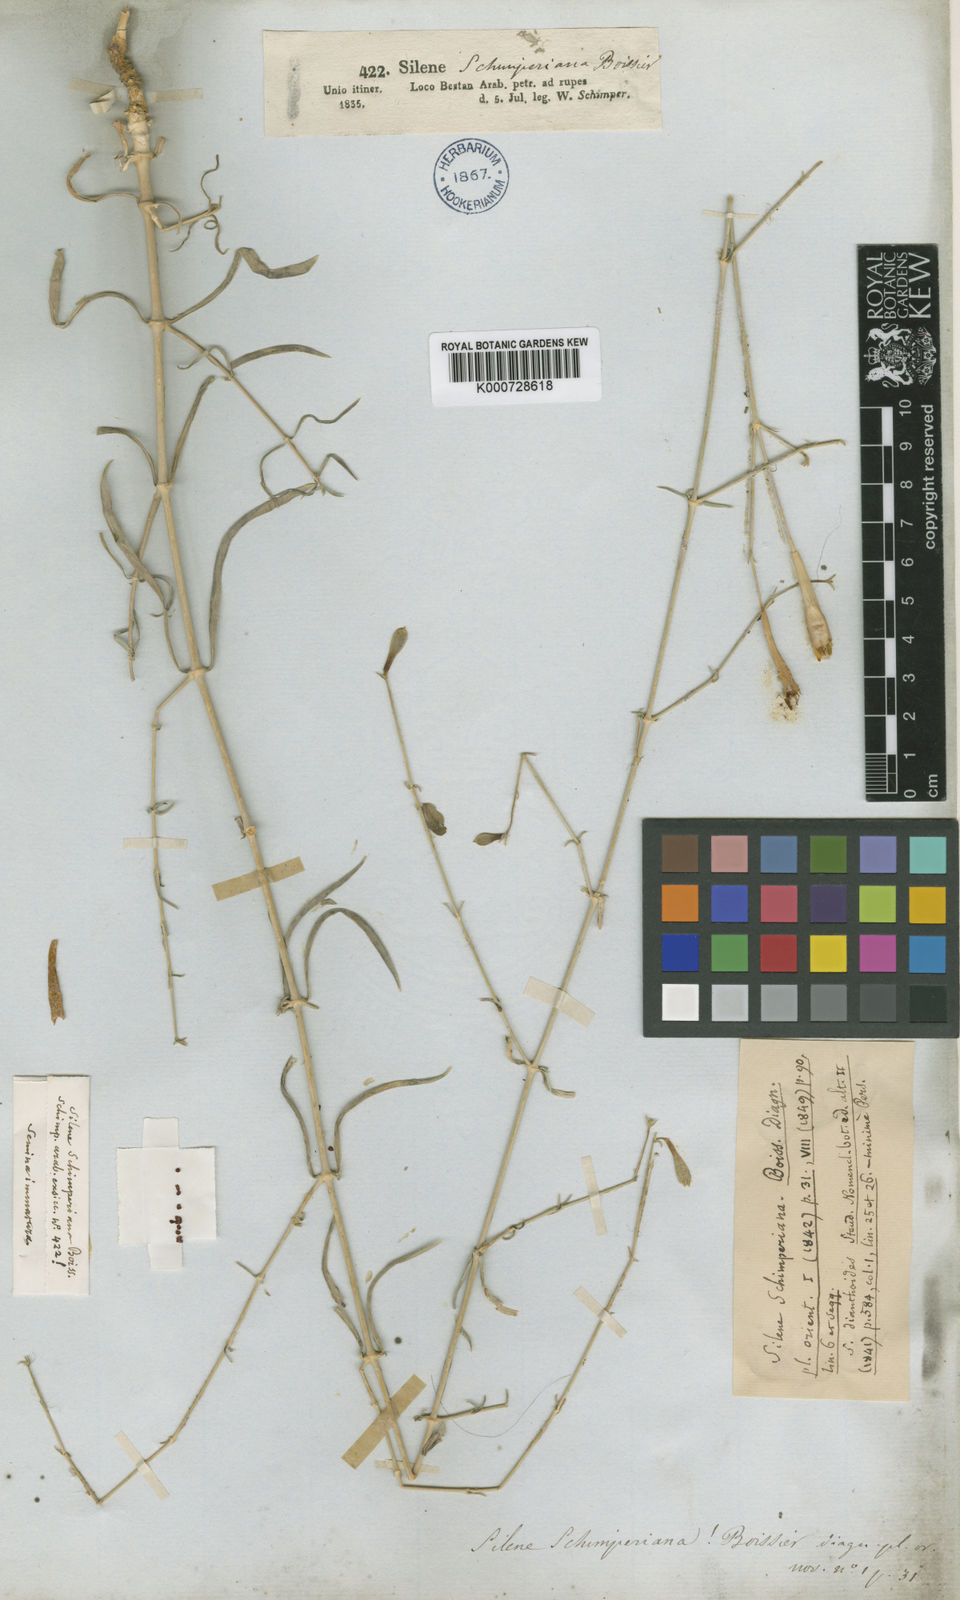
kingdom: Plantae
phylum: Tracheophyta
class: Magnoliopsida
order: Caryophyllales
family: Caryophyllaceae
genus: Silene
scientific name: Silene schimperiana
